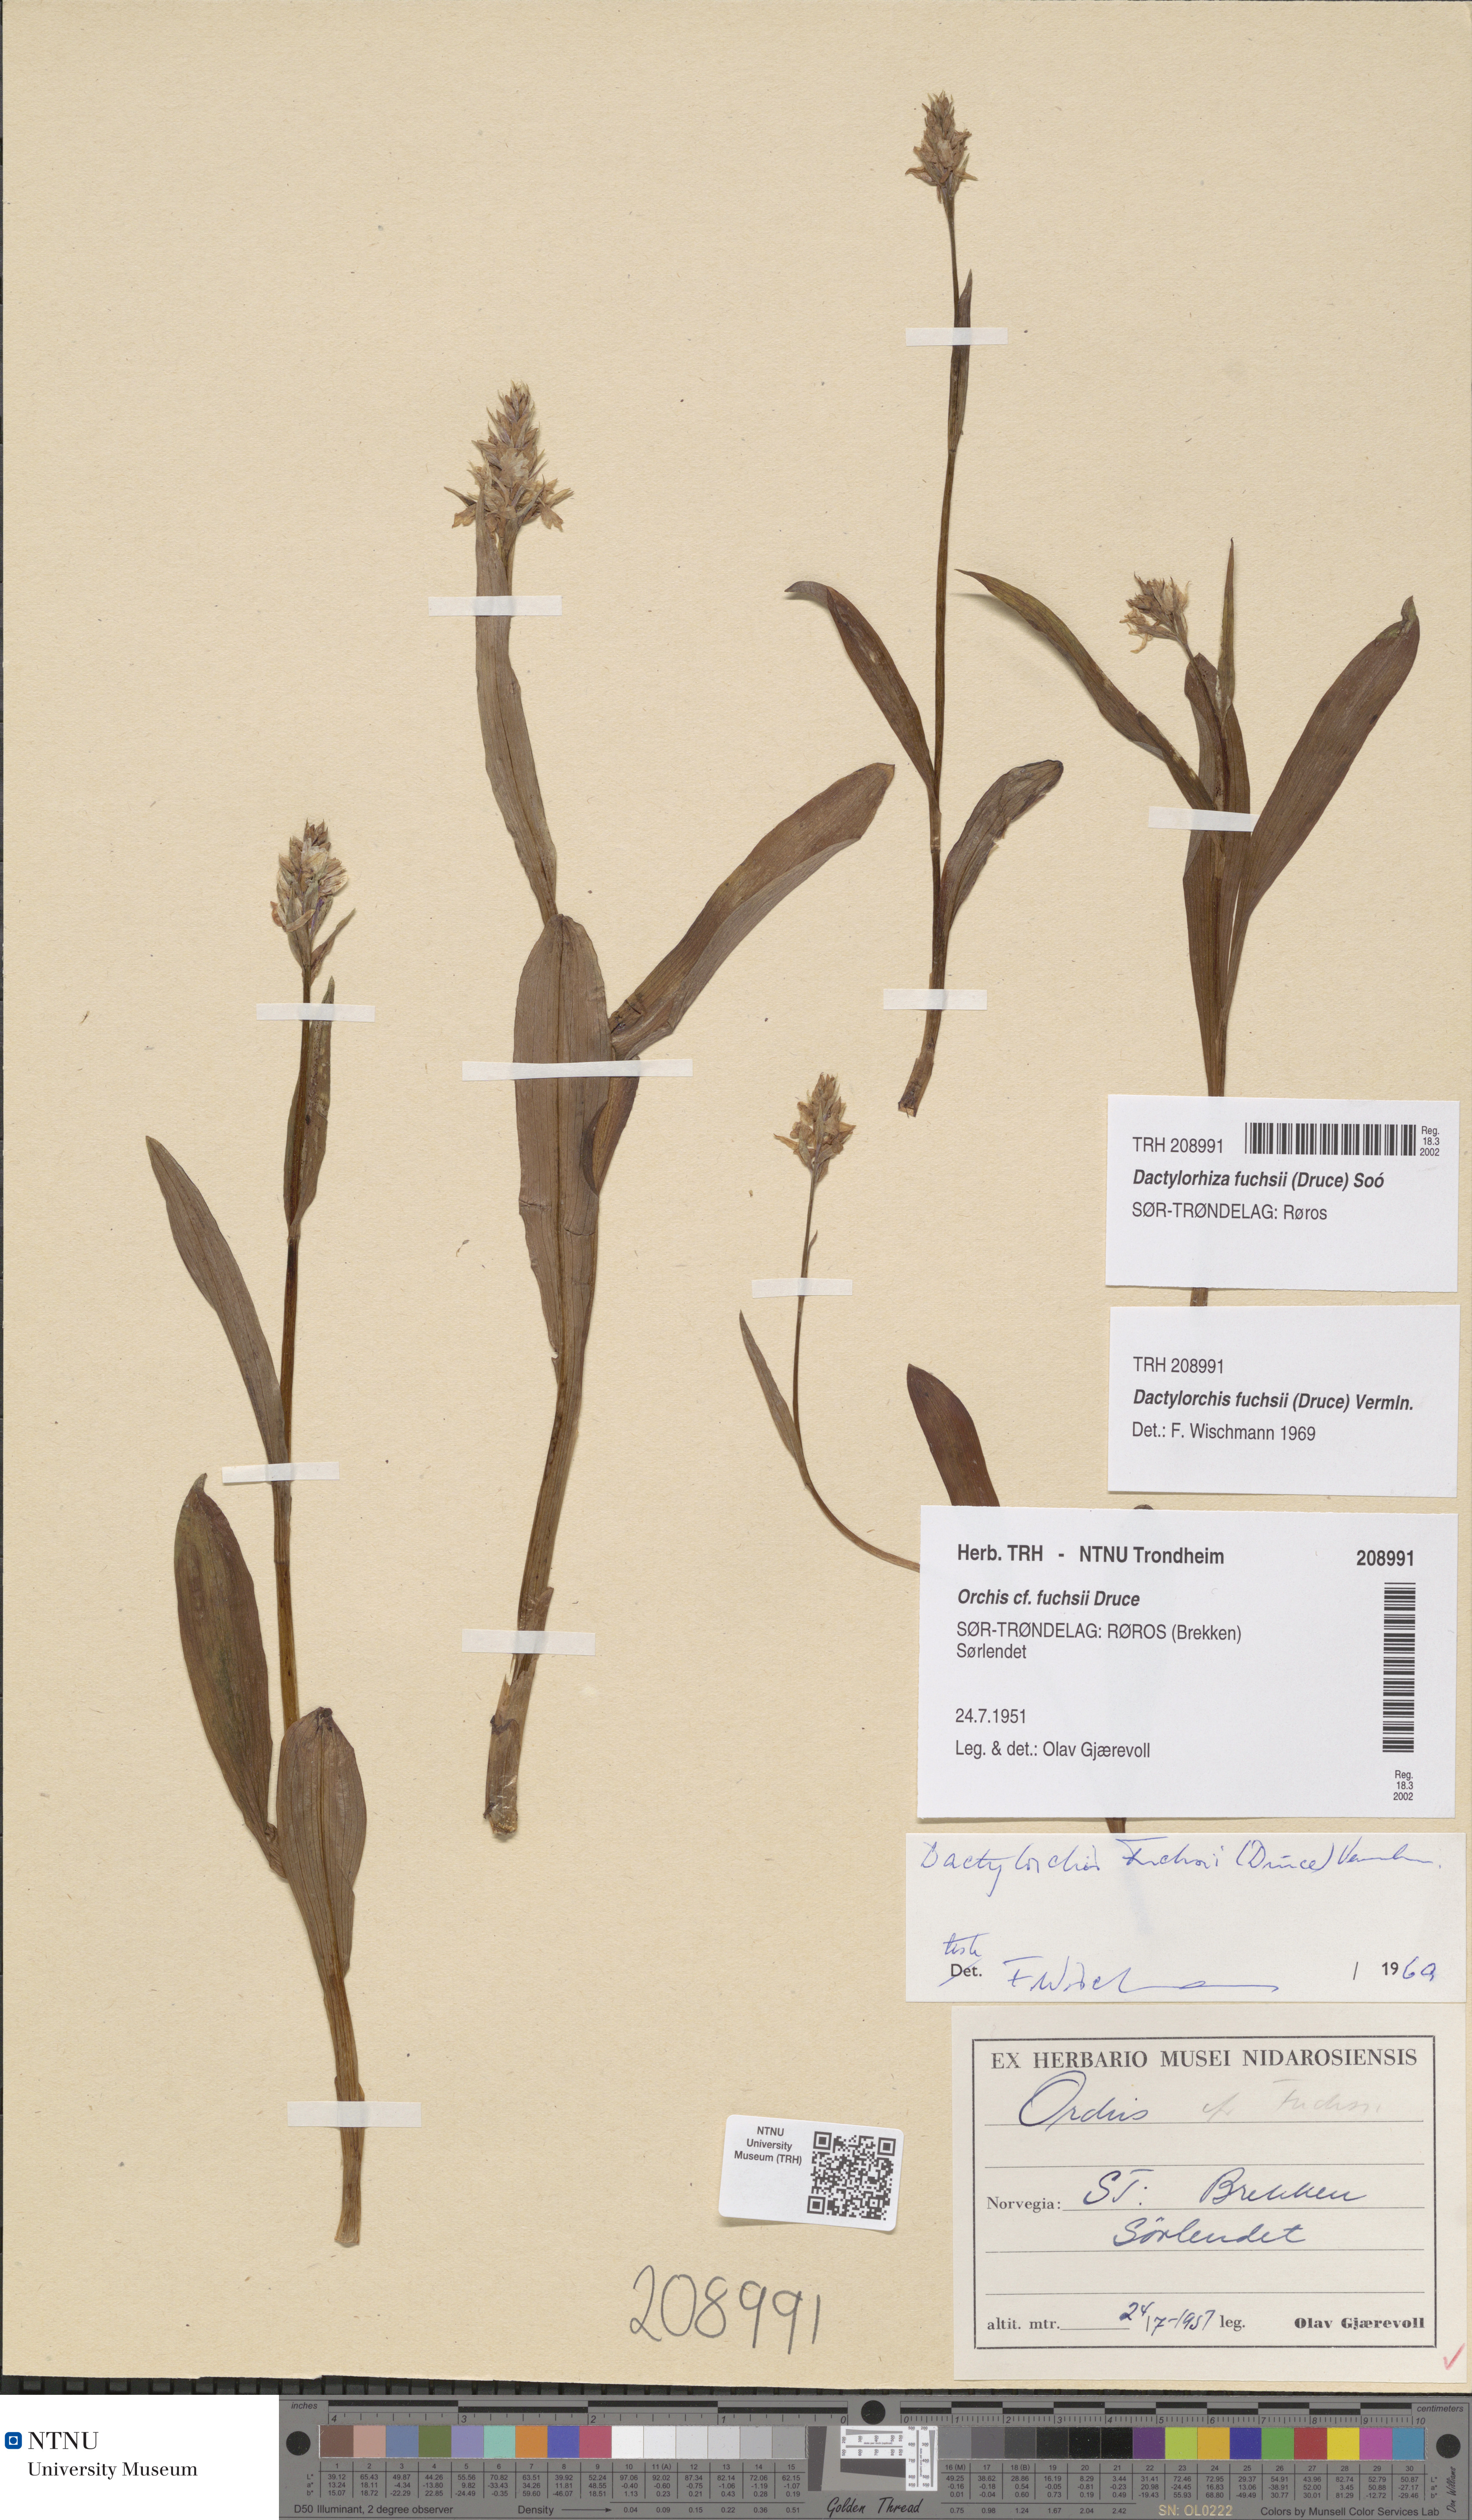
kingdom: Plantae
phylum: Tracheophyta
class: Liliopsida
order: Asparagales
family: Orchidaceae
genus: Dactylorhiza
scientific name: Dactylorhiza maculata
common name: Heath spotted-orchid
